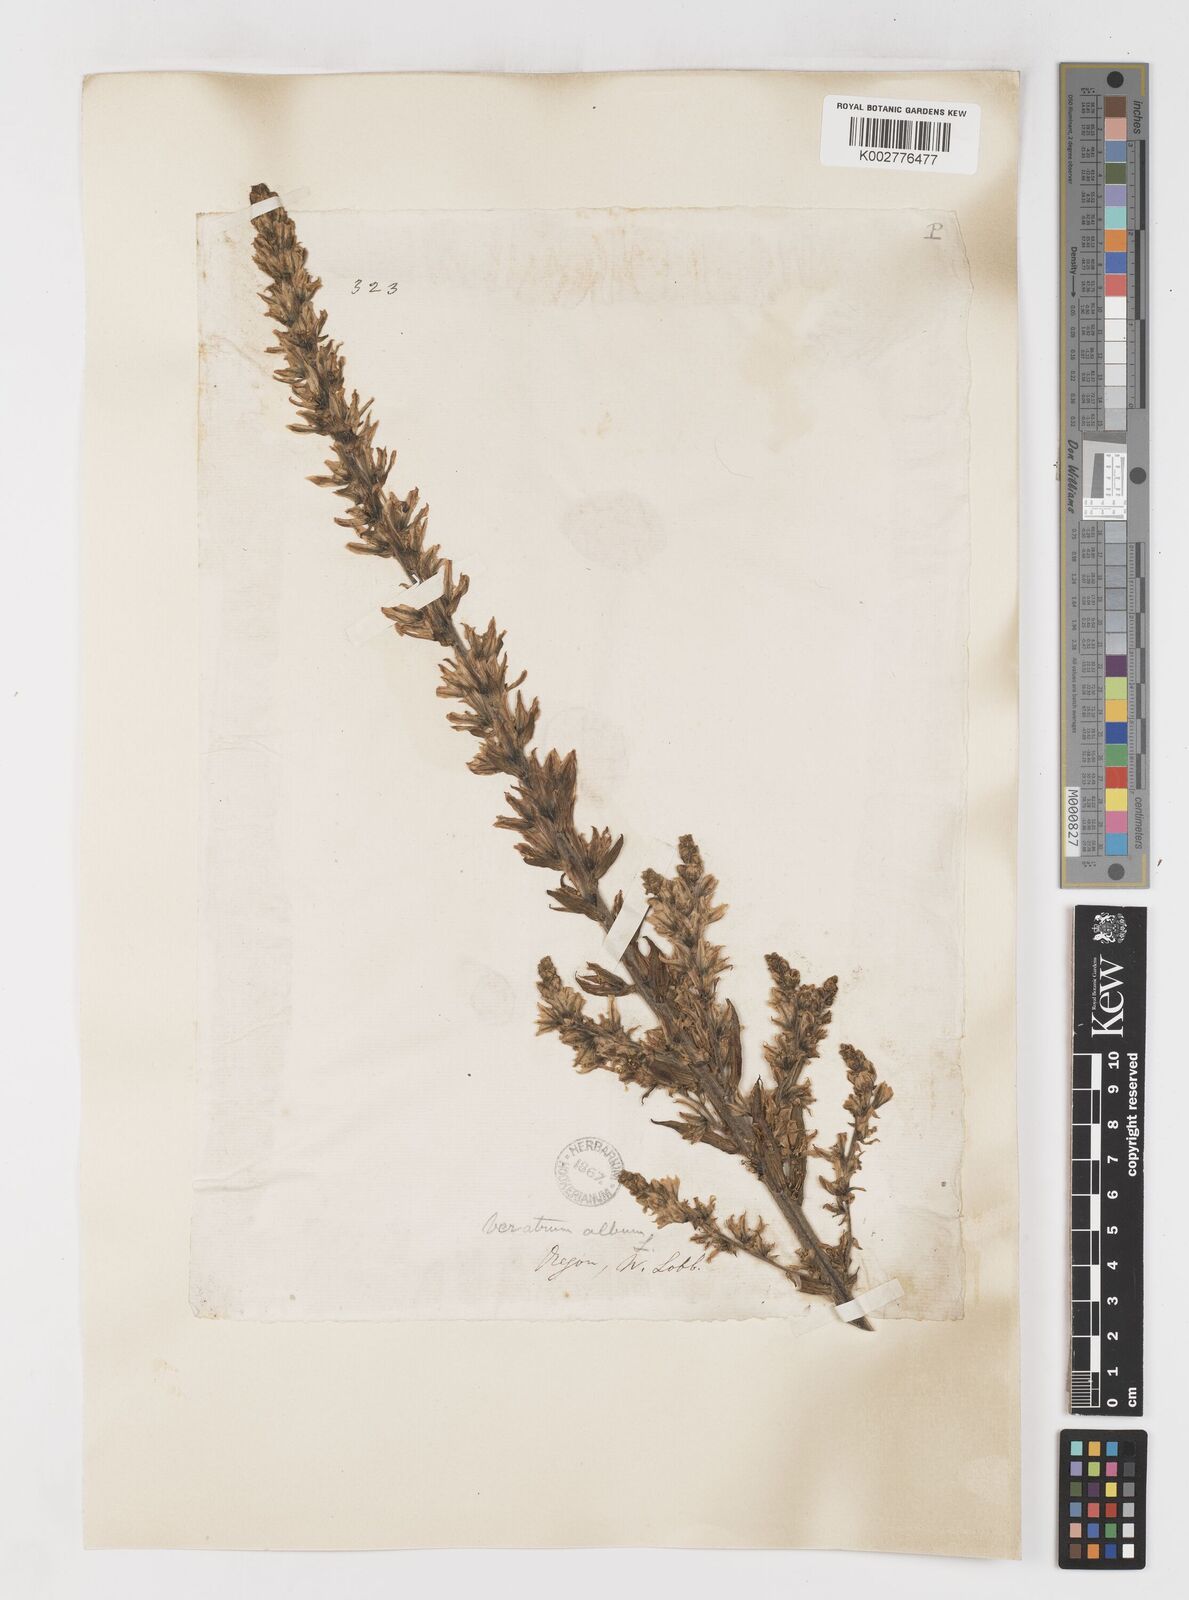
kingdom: Plantae
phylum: Tracheophyta
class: Liliopsida
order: Liliales
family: Melanthiaceae
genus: Veratrum
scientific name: Veratrum californicum
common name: California veratrum
